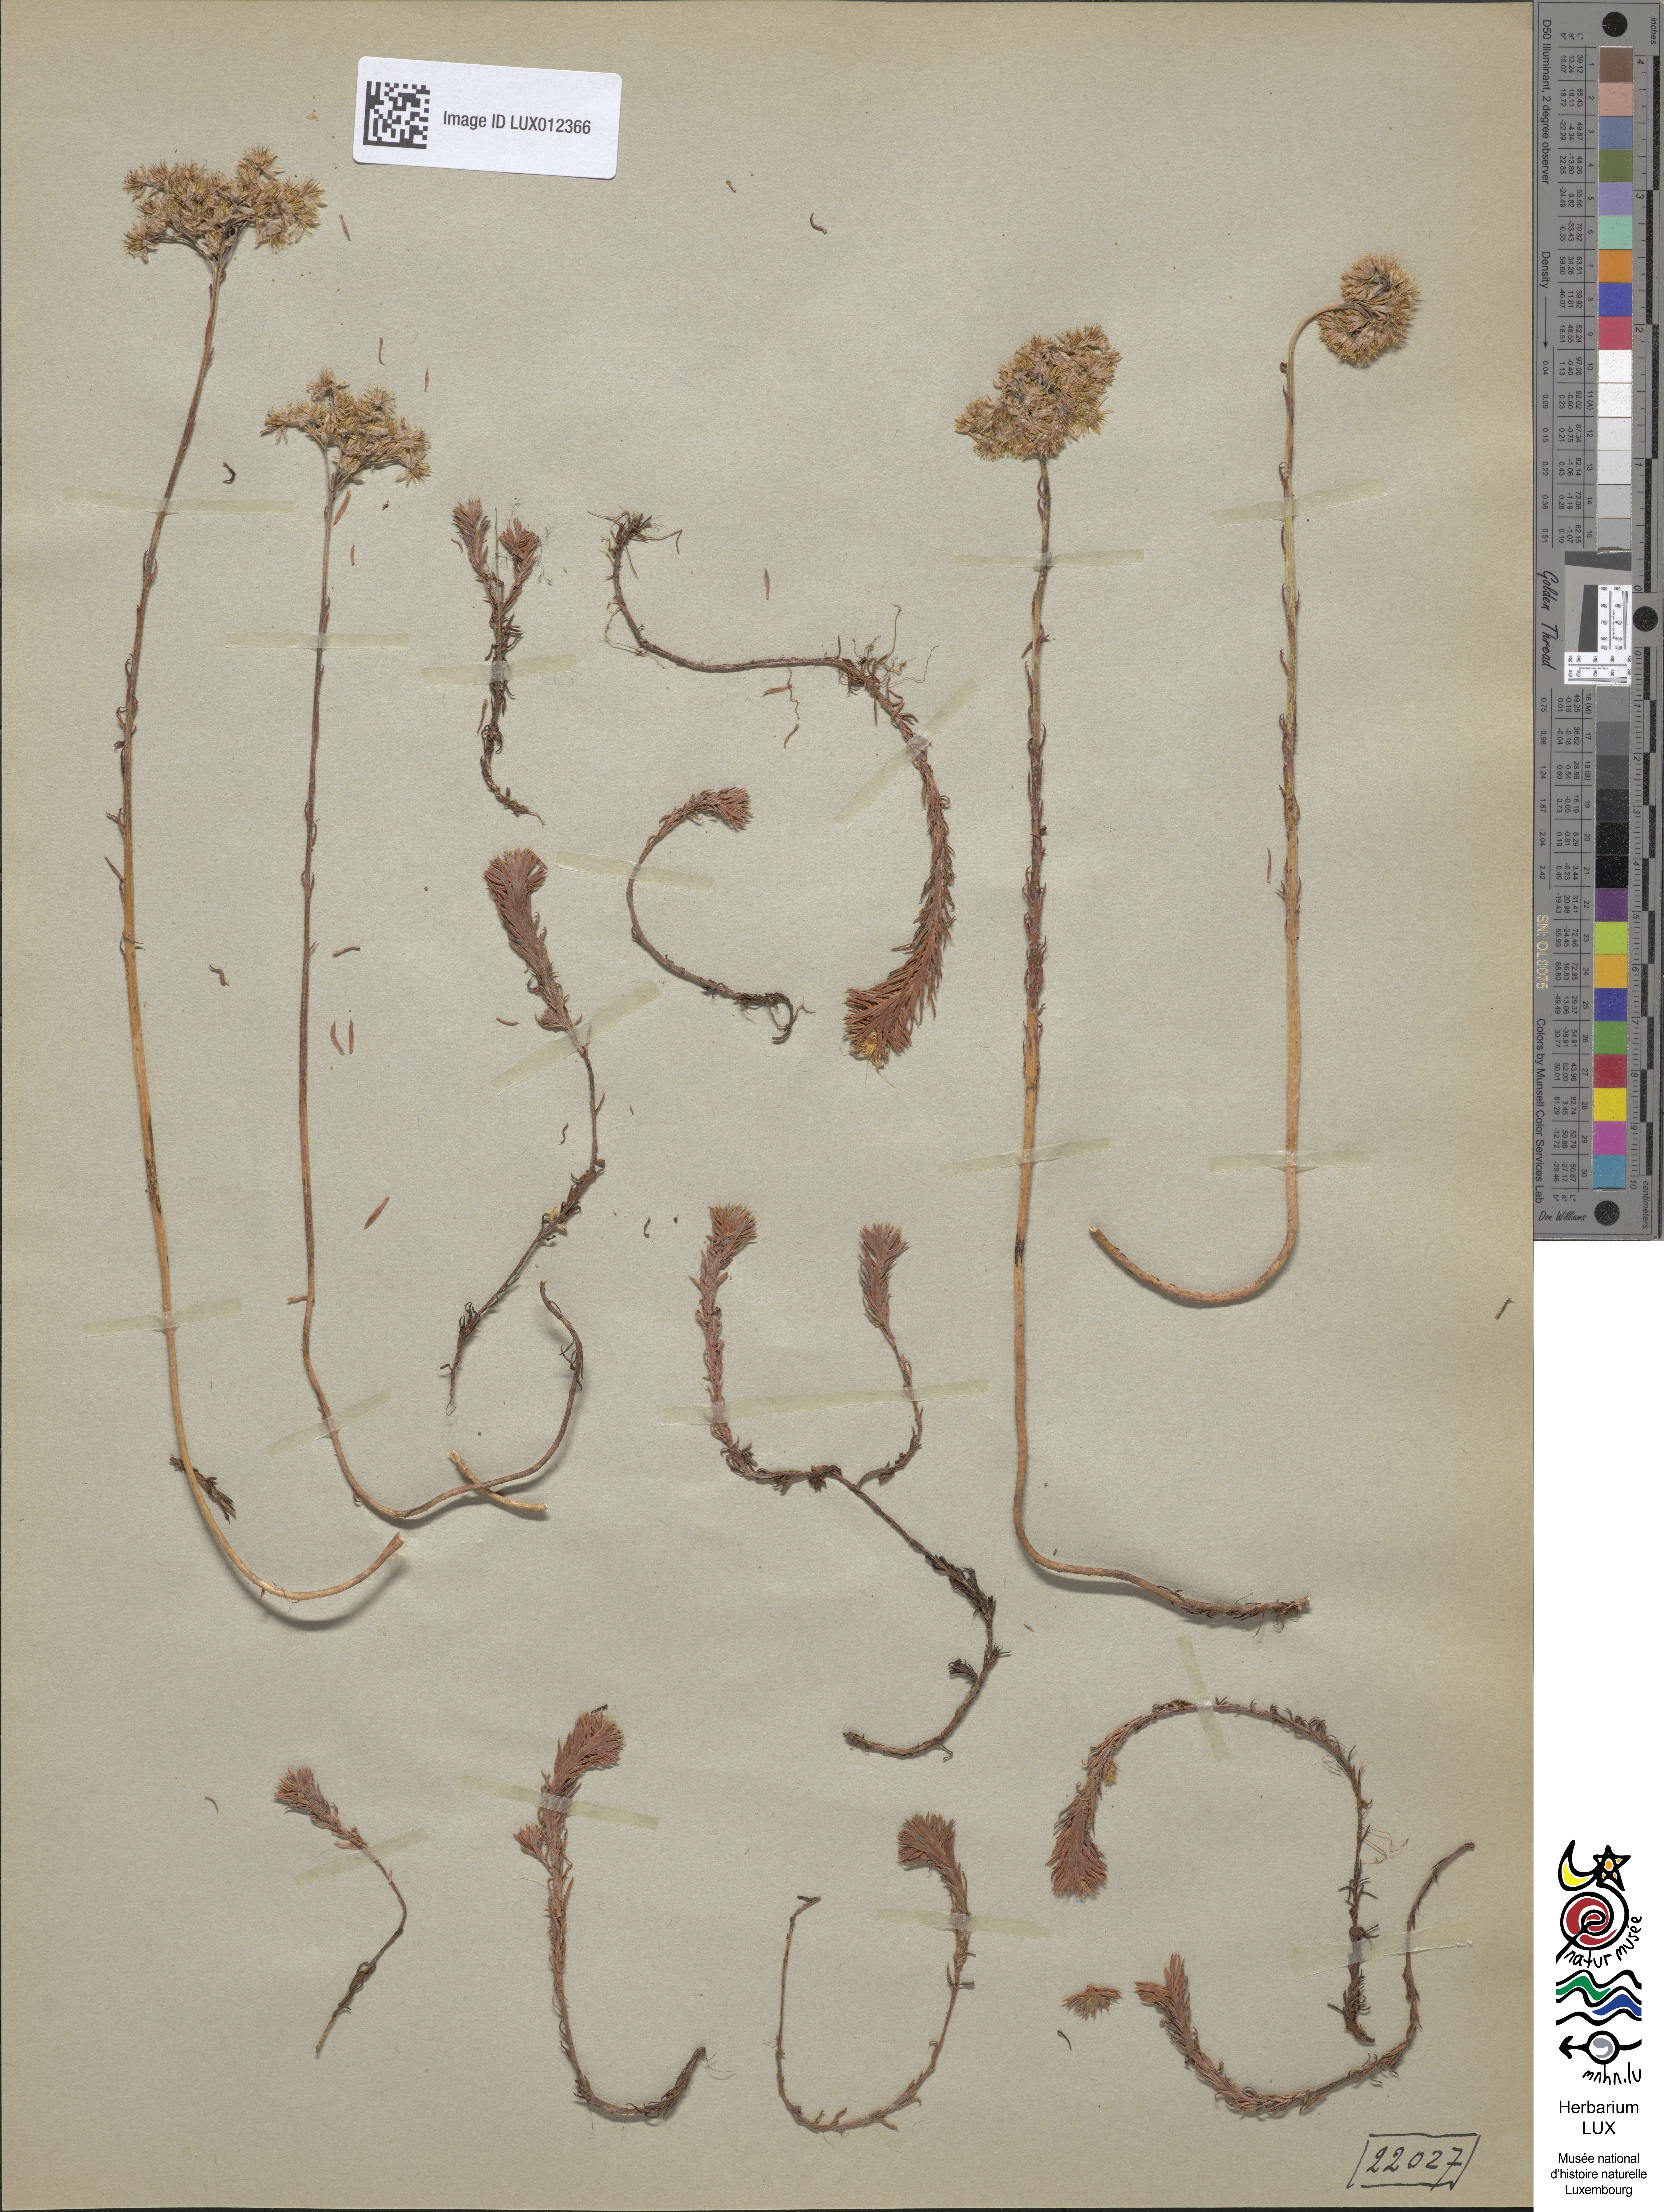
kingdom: Plantae
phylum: Tracheophyta
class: Magnoliopsida
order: Saxifragales
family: Crassulaceae
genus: Petrosedum
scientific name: Petrosedum forsterianum
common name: Forster's stonecrop
